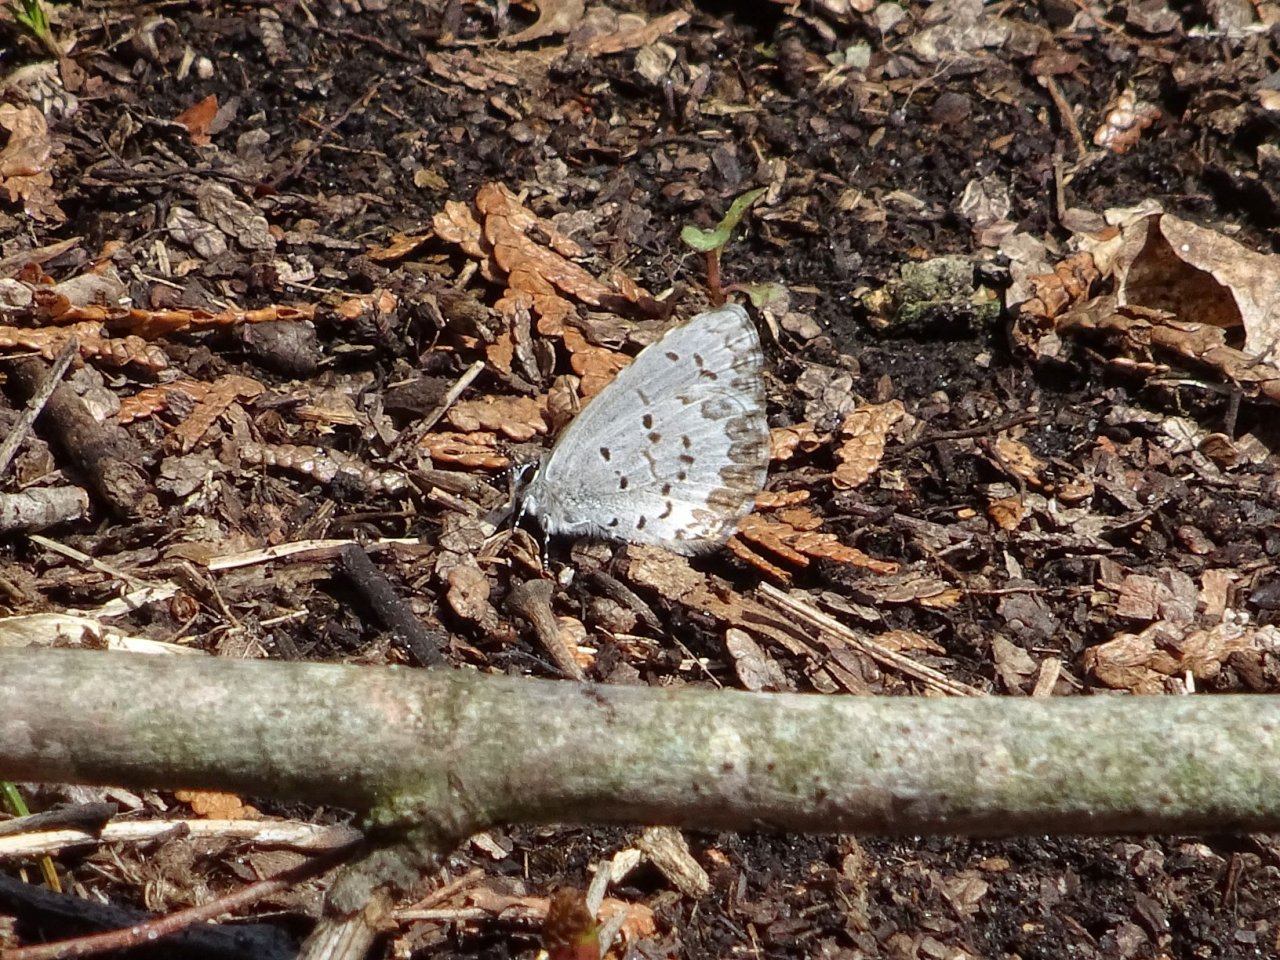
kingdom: Animalia
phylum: Arthropoda
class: Insecta
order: Lepidoptera
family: Lycaenidae
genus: Celastrina
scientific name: Celastrina lucia
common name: Northern Spring Azure
